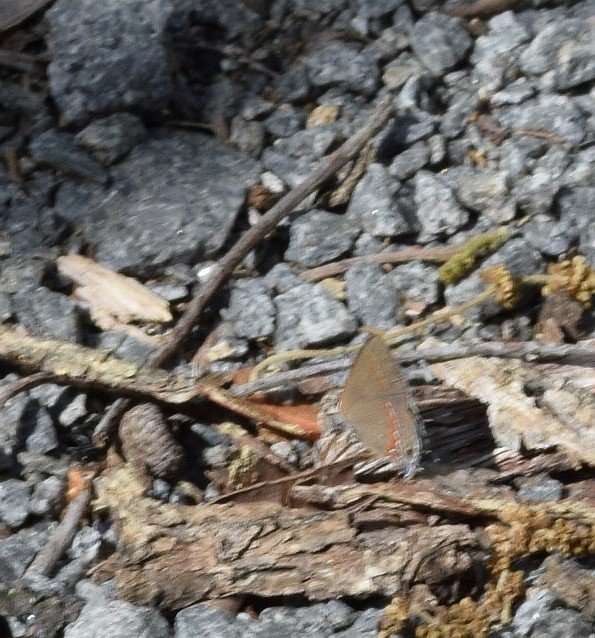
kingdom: Animalia
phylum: Arthropoda
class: Insecta
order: Lepidoptera
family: Lycaenidae
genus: Calycopis
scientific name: Calycopis cecrops
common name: Red-banded Hairstreak
